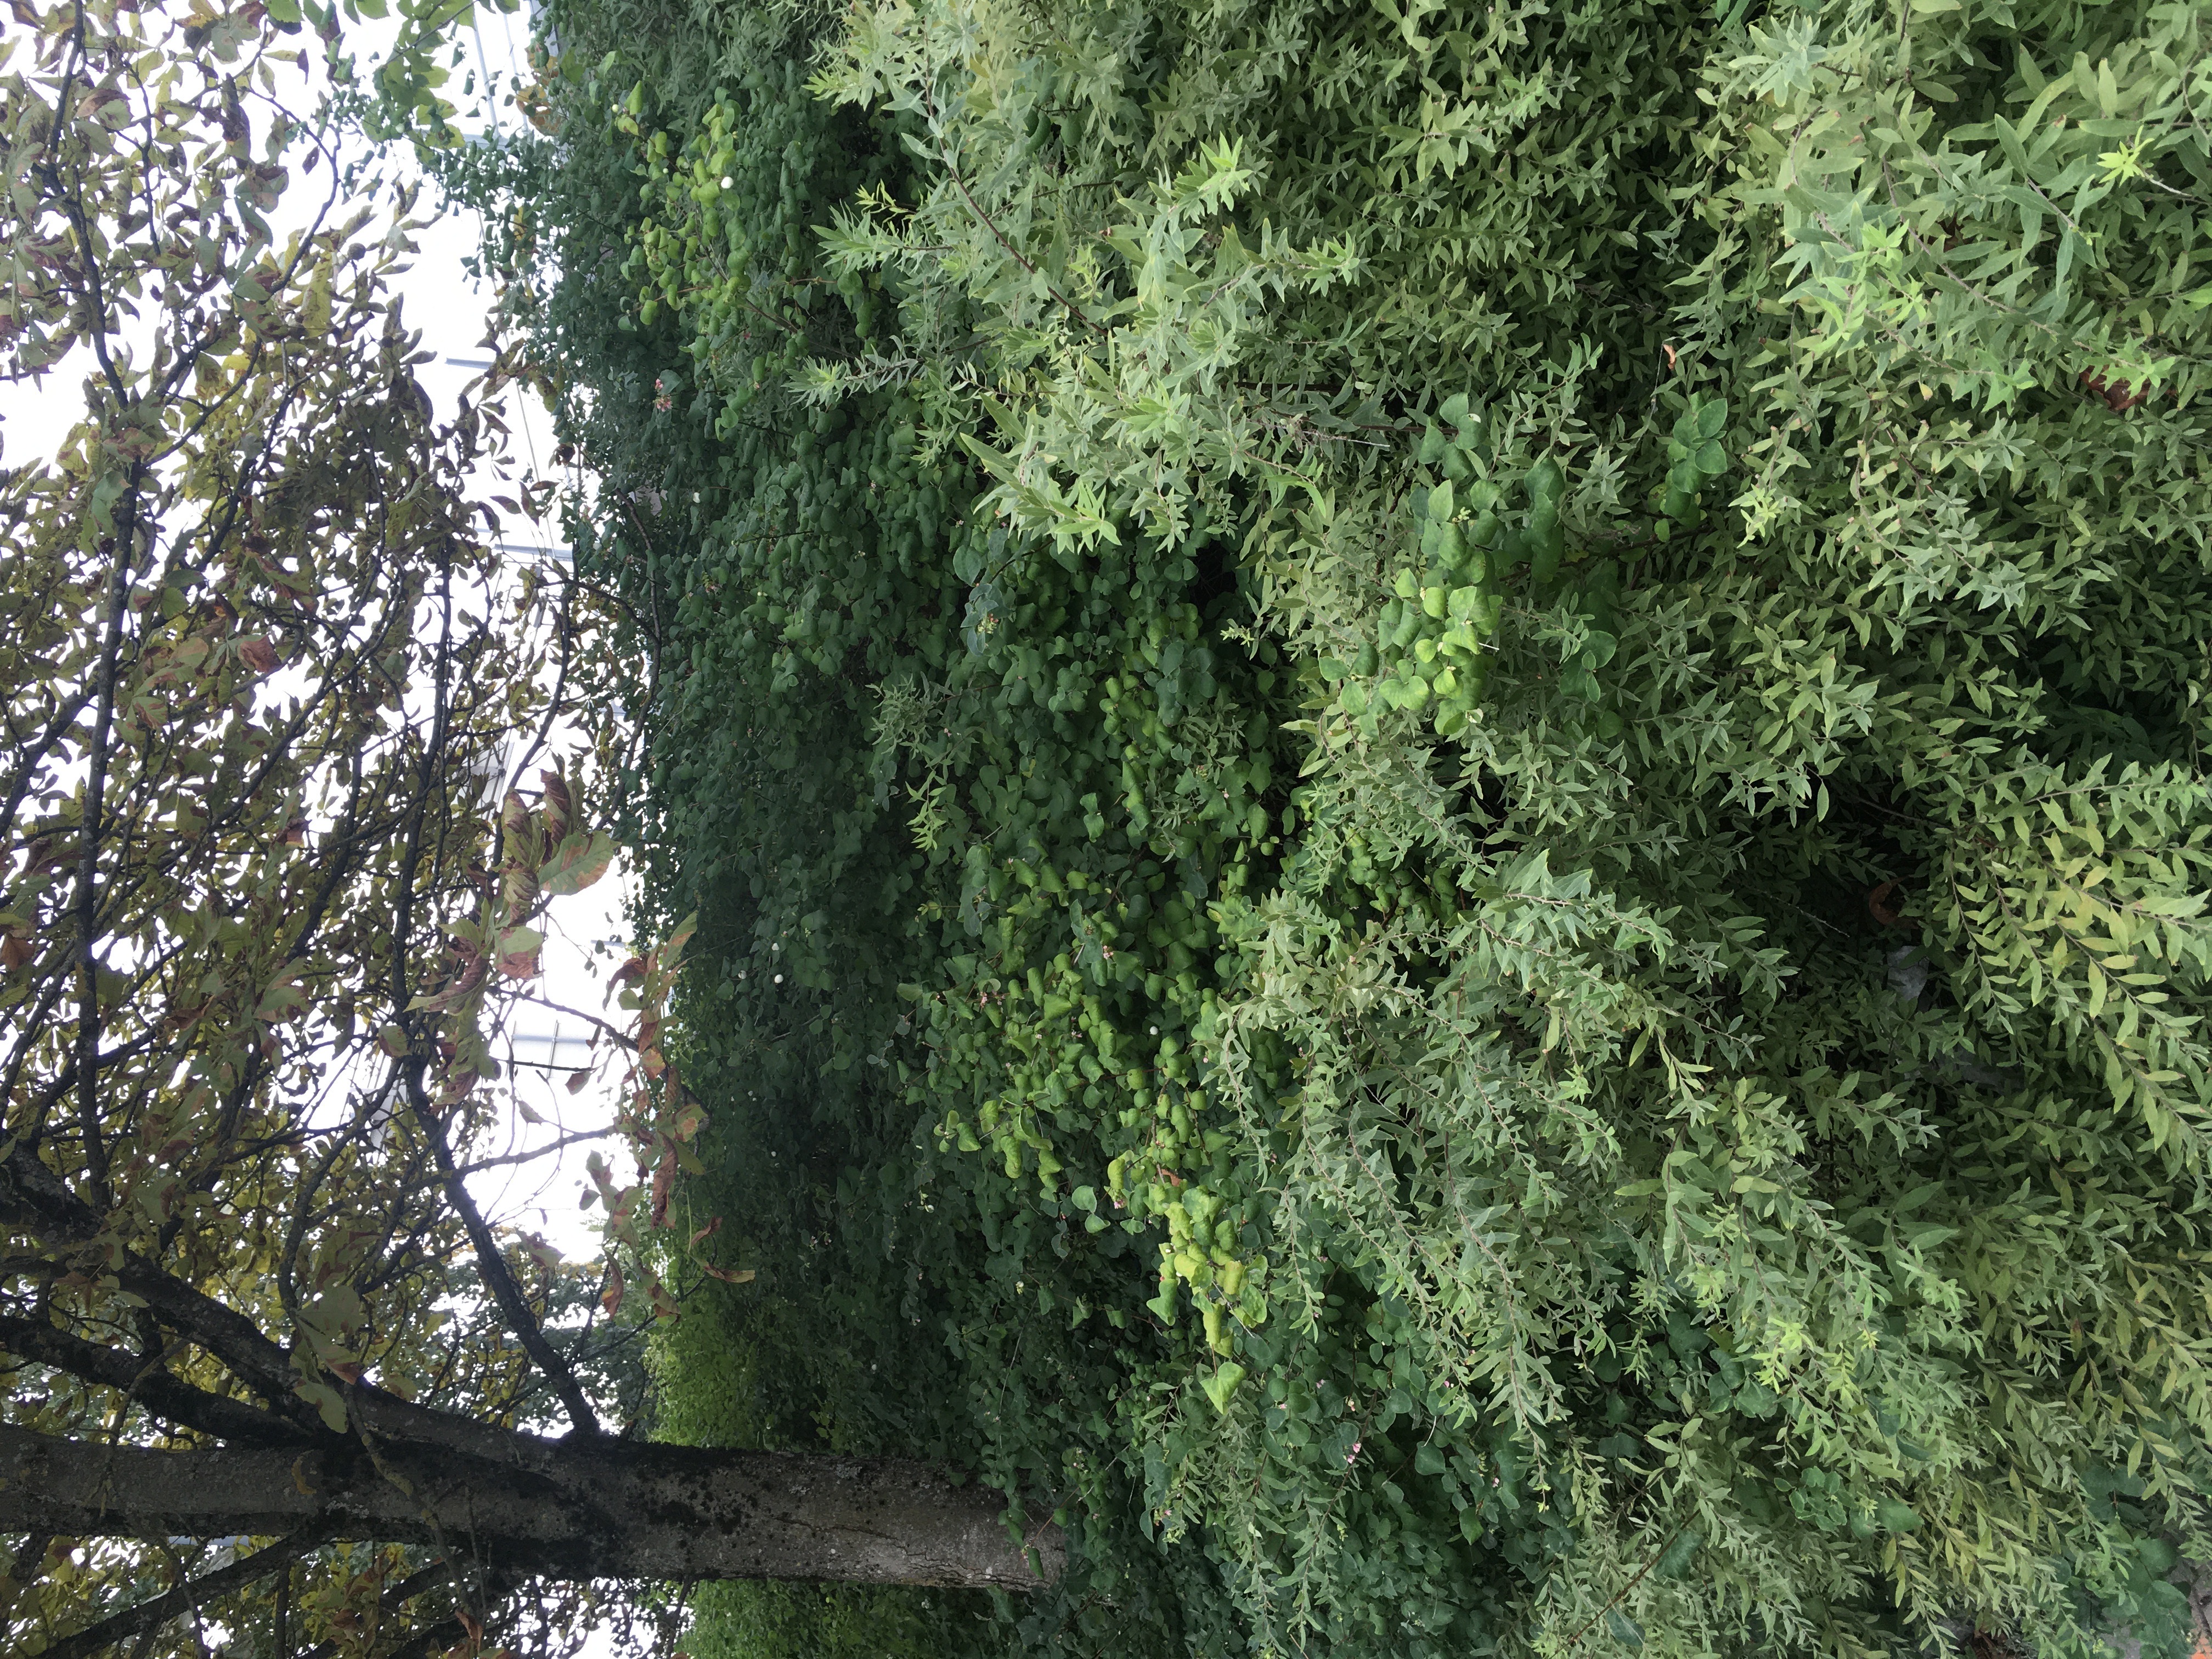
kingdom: Plantae
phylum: Tracheophyta
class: Magnoliopsida
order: Dipsacales
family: Caprifoliaceae
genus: Symphoricarpos
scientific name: Symphoricarpos albus
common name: snøbær
